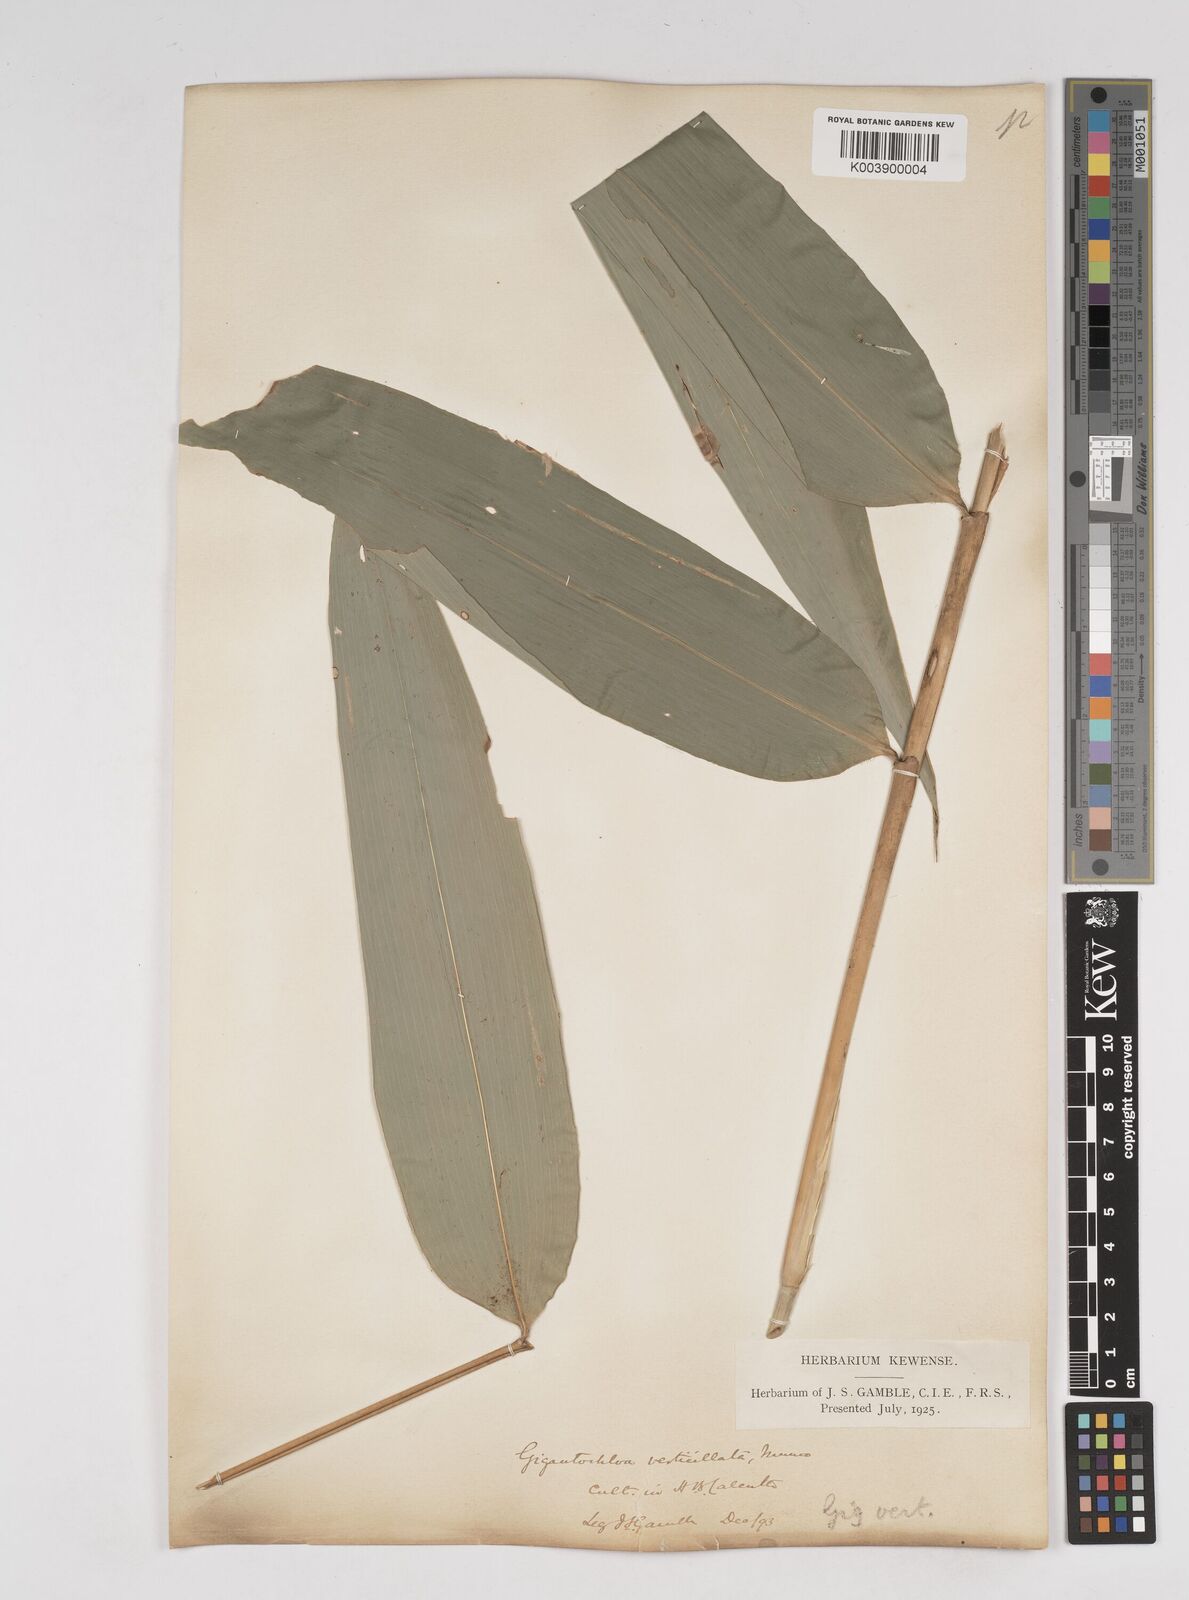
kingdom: Plantae
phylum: Tracheophyta
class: Liliopsida
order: Poales
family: Poaceae
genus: Gigantochloa
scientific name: Gigantochloa verticillata
